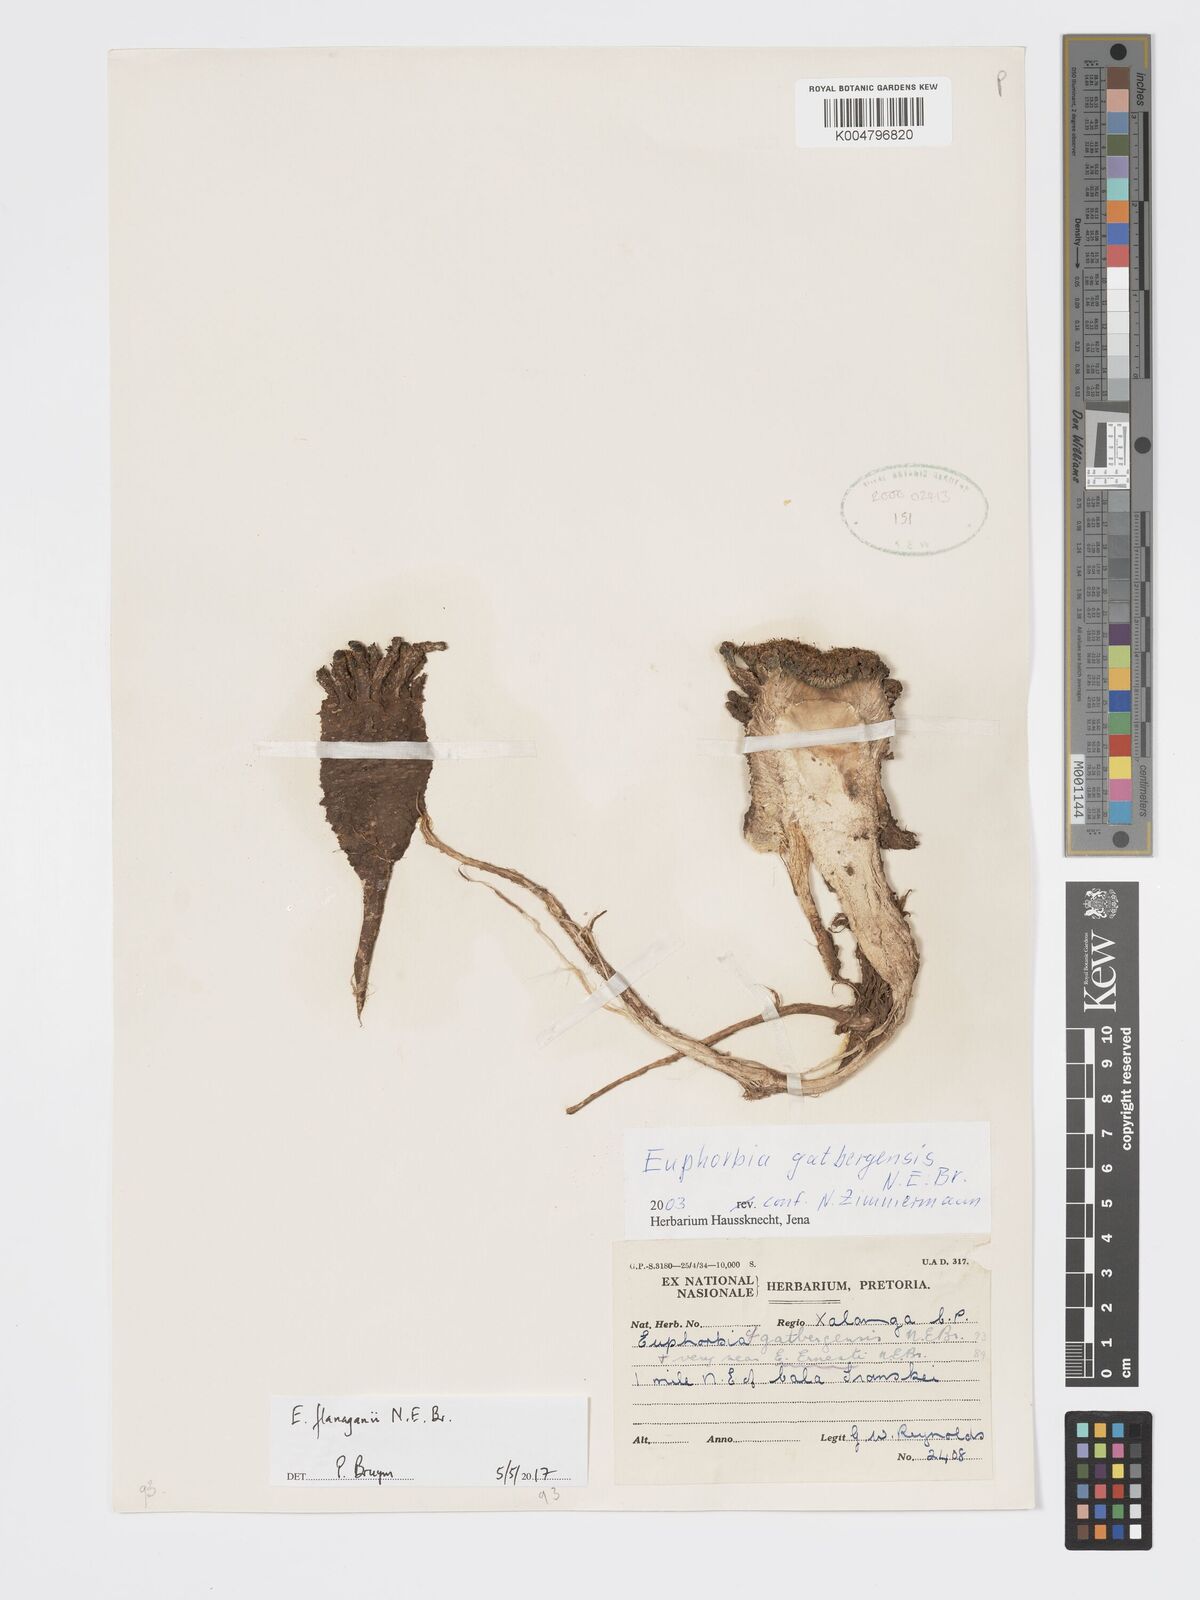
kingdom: Plantae
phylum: Tracheophyta
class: Magnoliopsida
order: Malpighiales
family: Euphorbiaceae
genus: Euphorbia
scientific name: Euphorbia flanaganii
